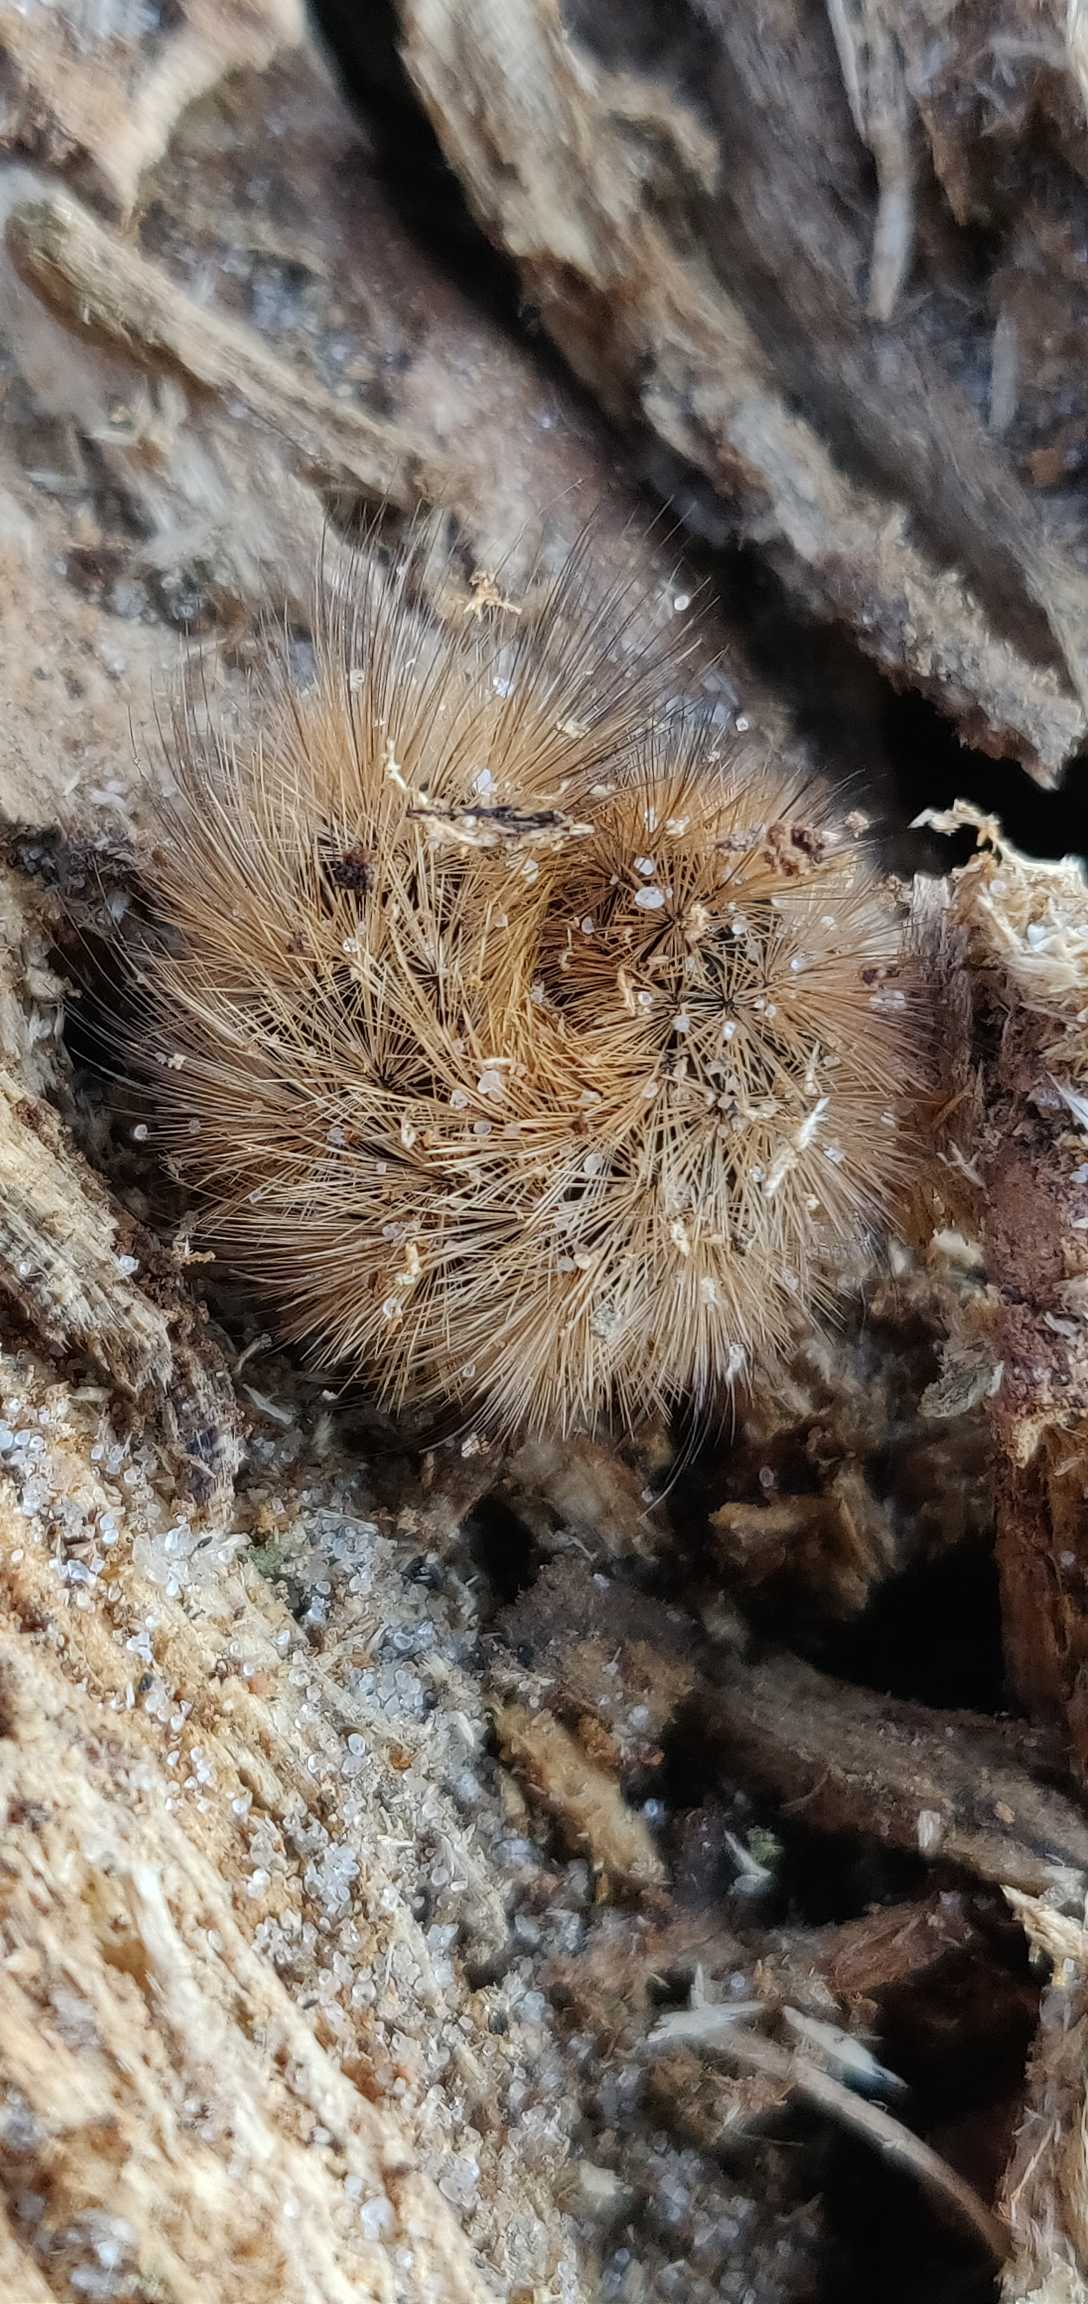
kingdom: Animalia
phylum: Arthropoda
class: Insecta
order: Lepidoptera
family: Erebidae
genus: Phragmatobia
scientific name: Phragmatobia fuliginosa
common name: Kanelbjørn
